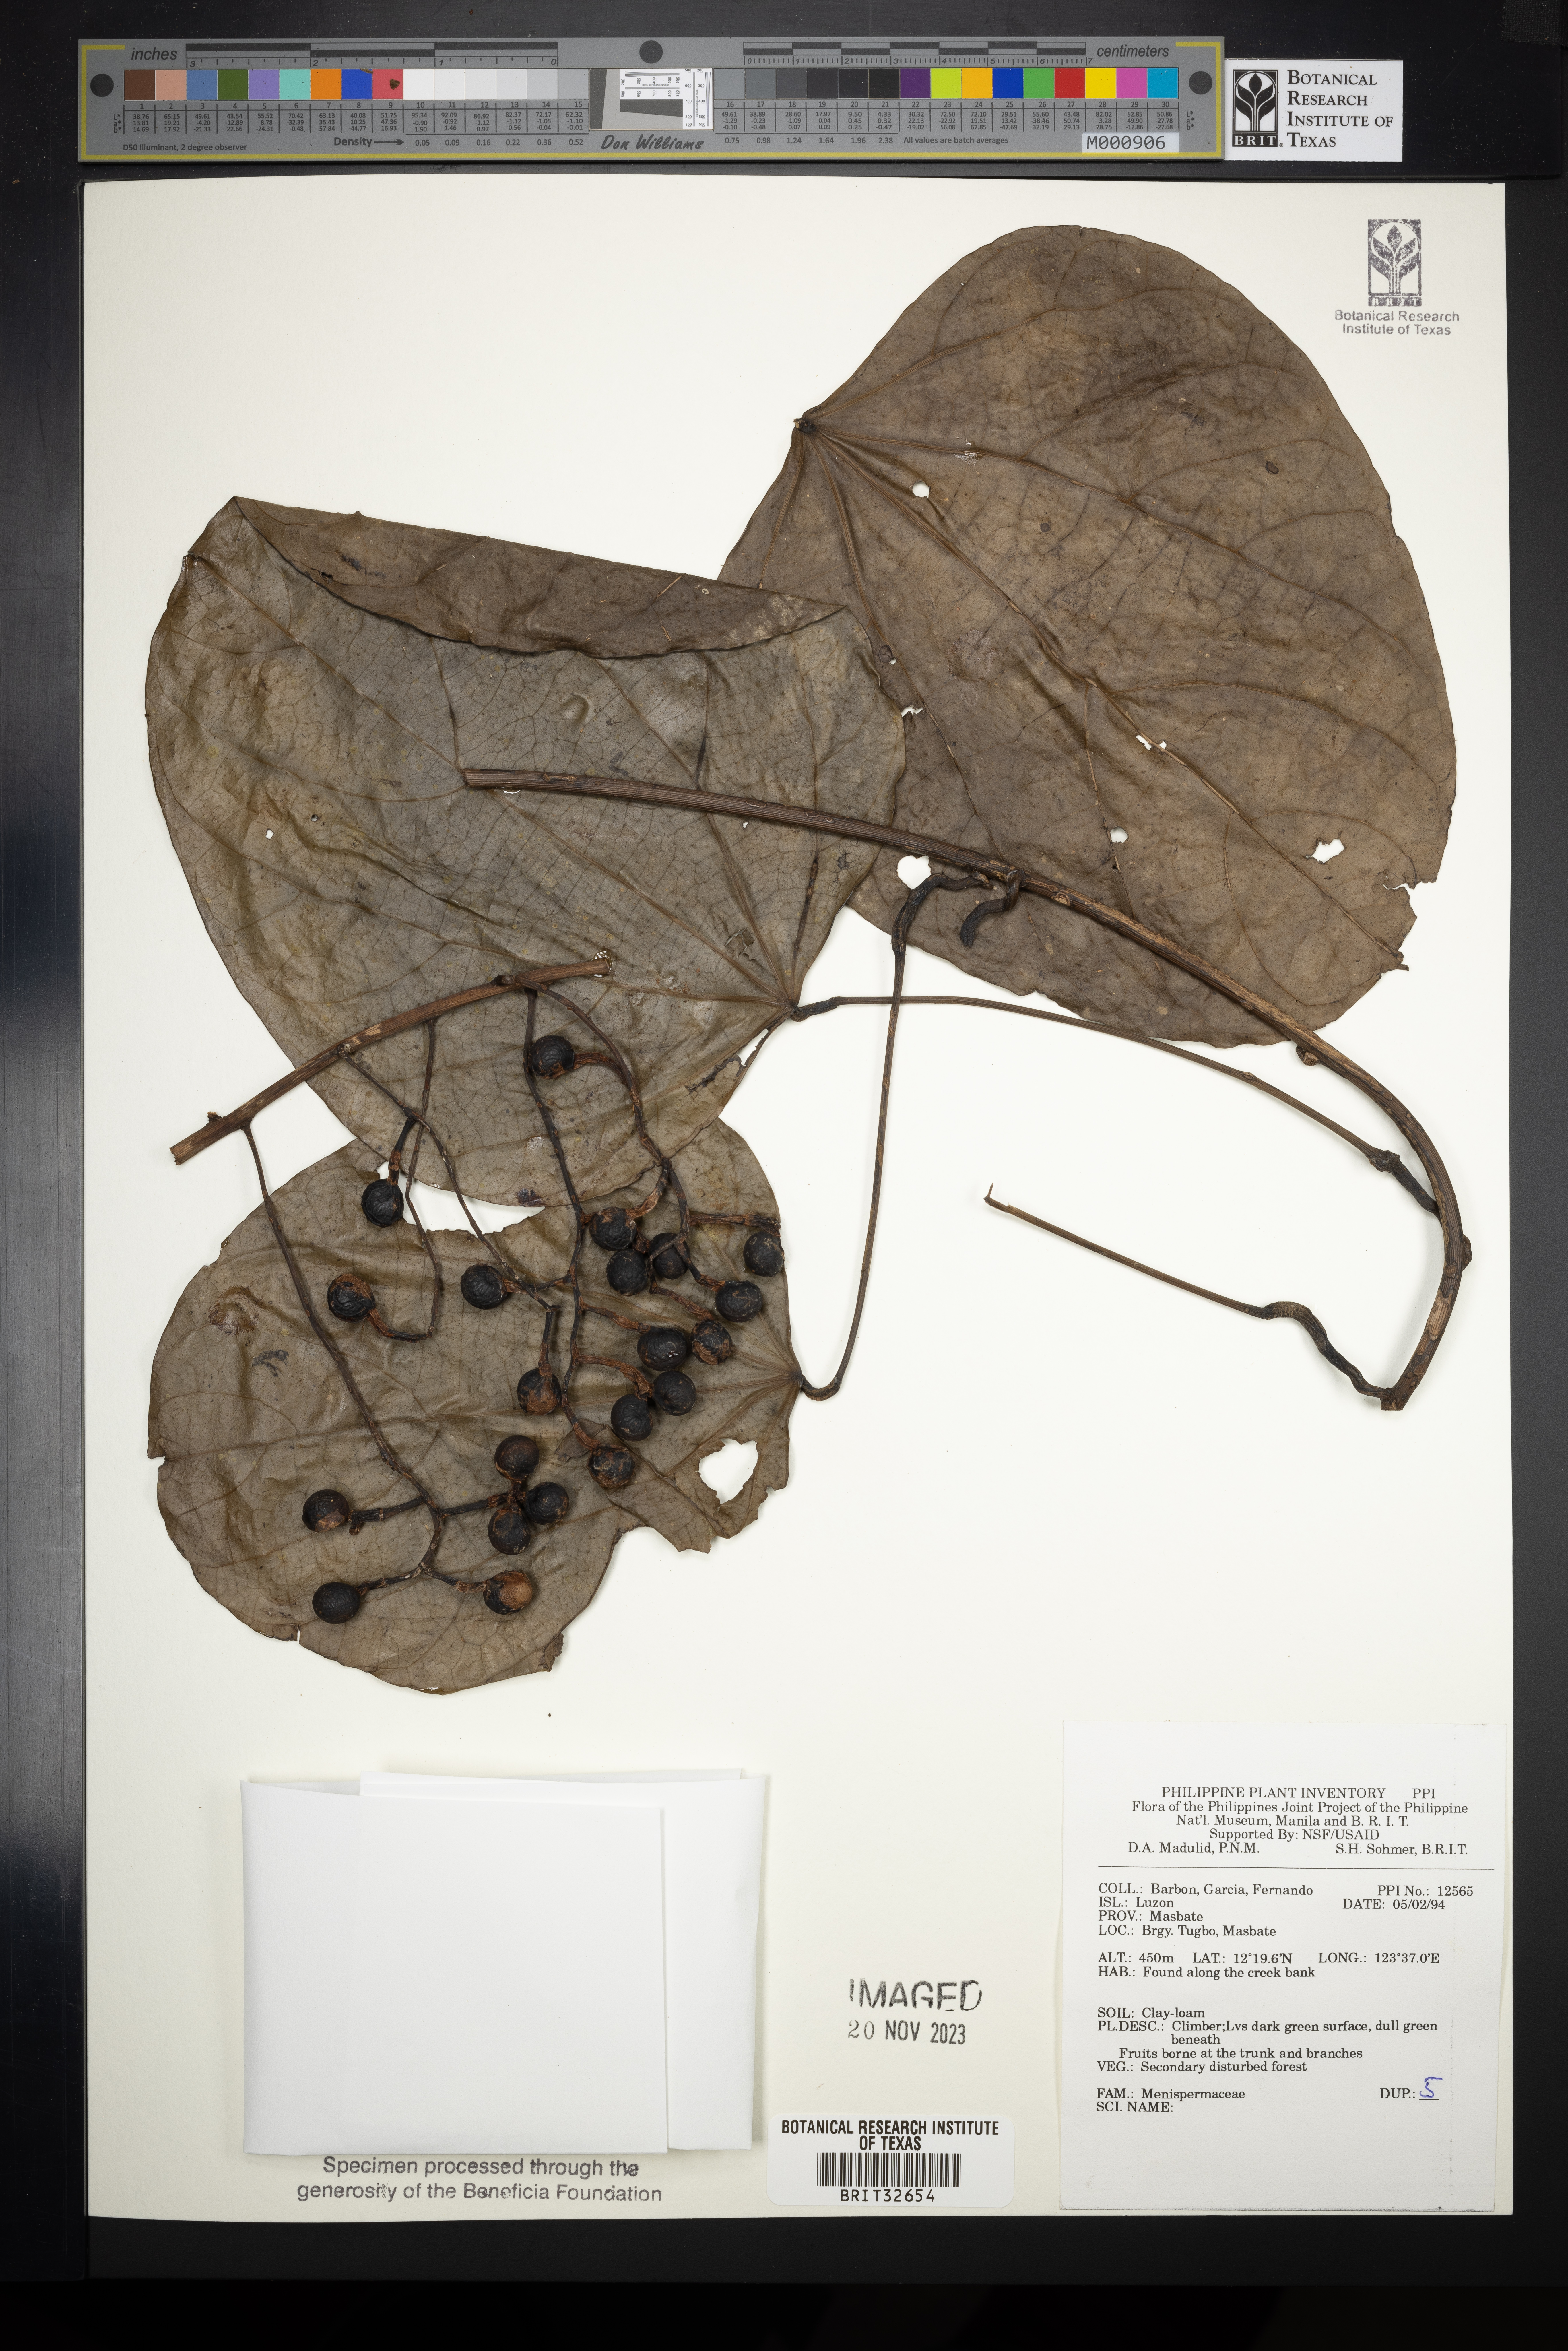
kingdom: Plantae
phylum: Tracheophyta
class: Magnoliopsida
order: Ranunculales
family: Menispermaceae
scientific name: Menispermaceae
